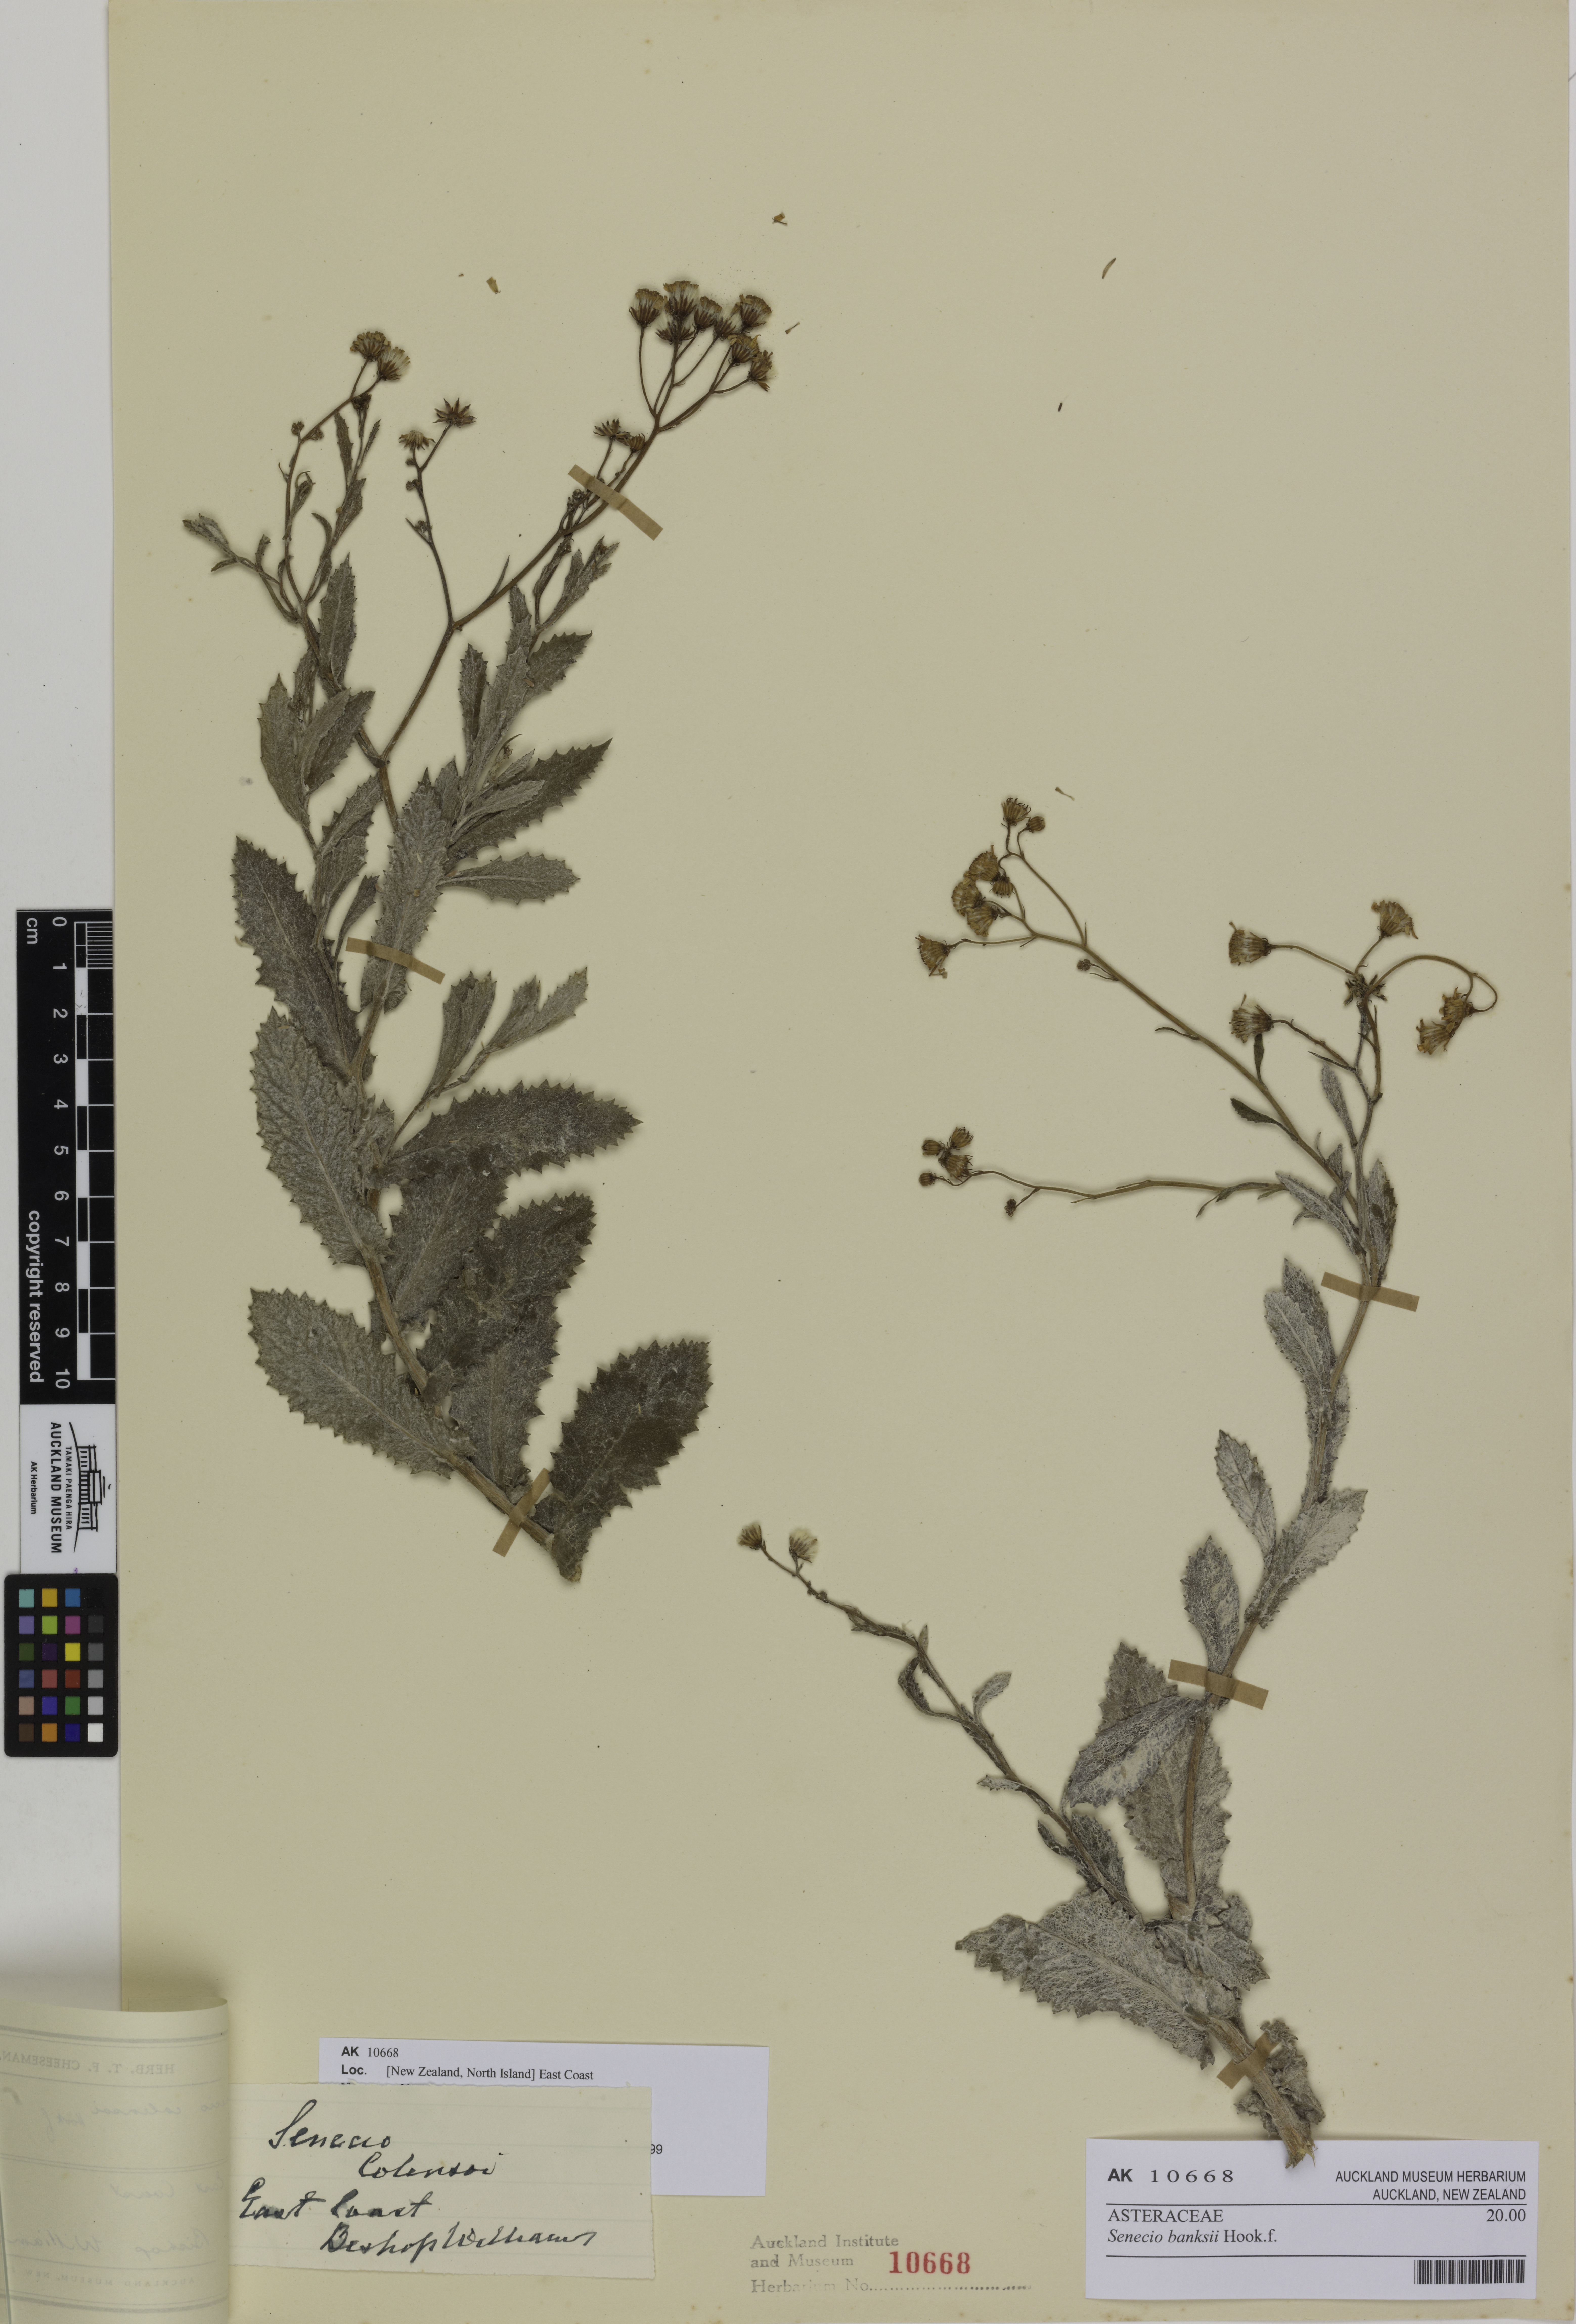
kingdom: Plantae
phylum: Tracheophyta
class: Magnoliopsida
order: Asterales
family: Asteraceae
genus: Senecio
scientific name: Senecio banksii
